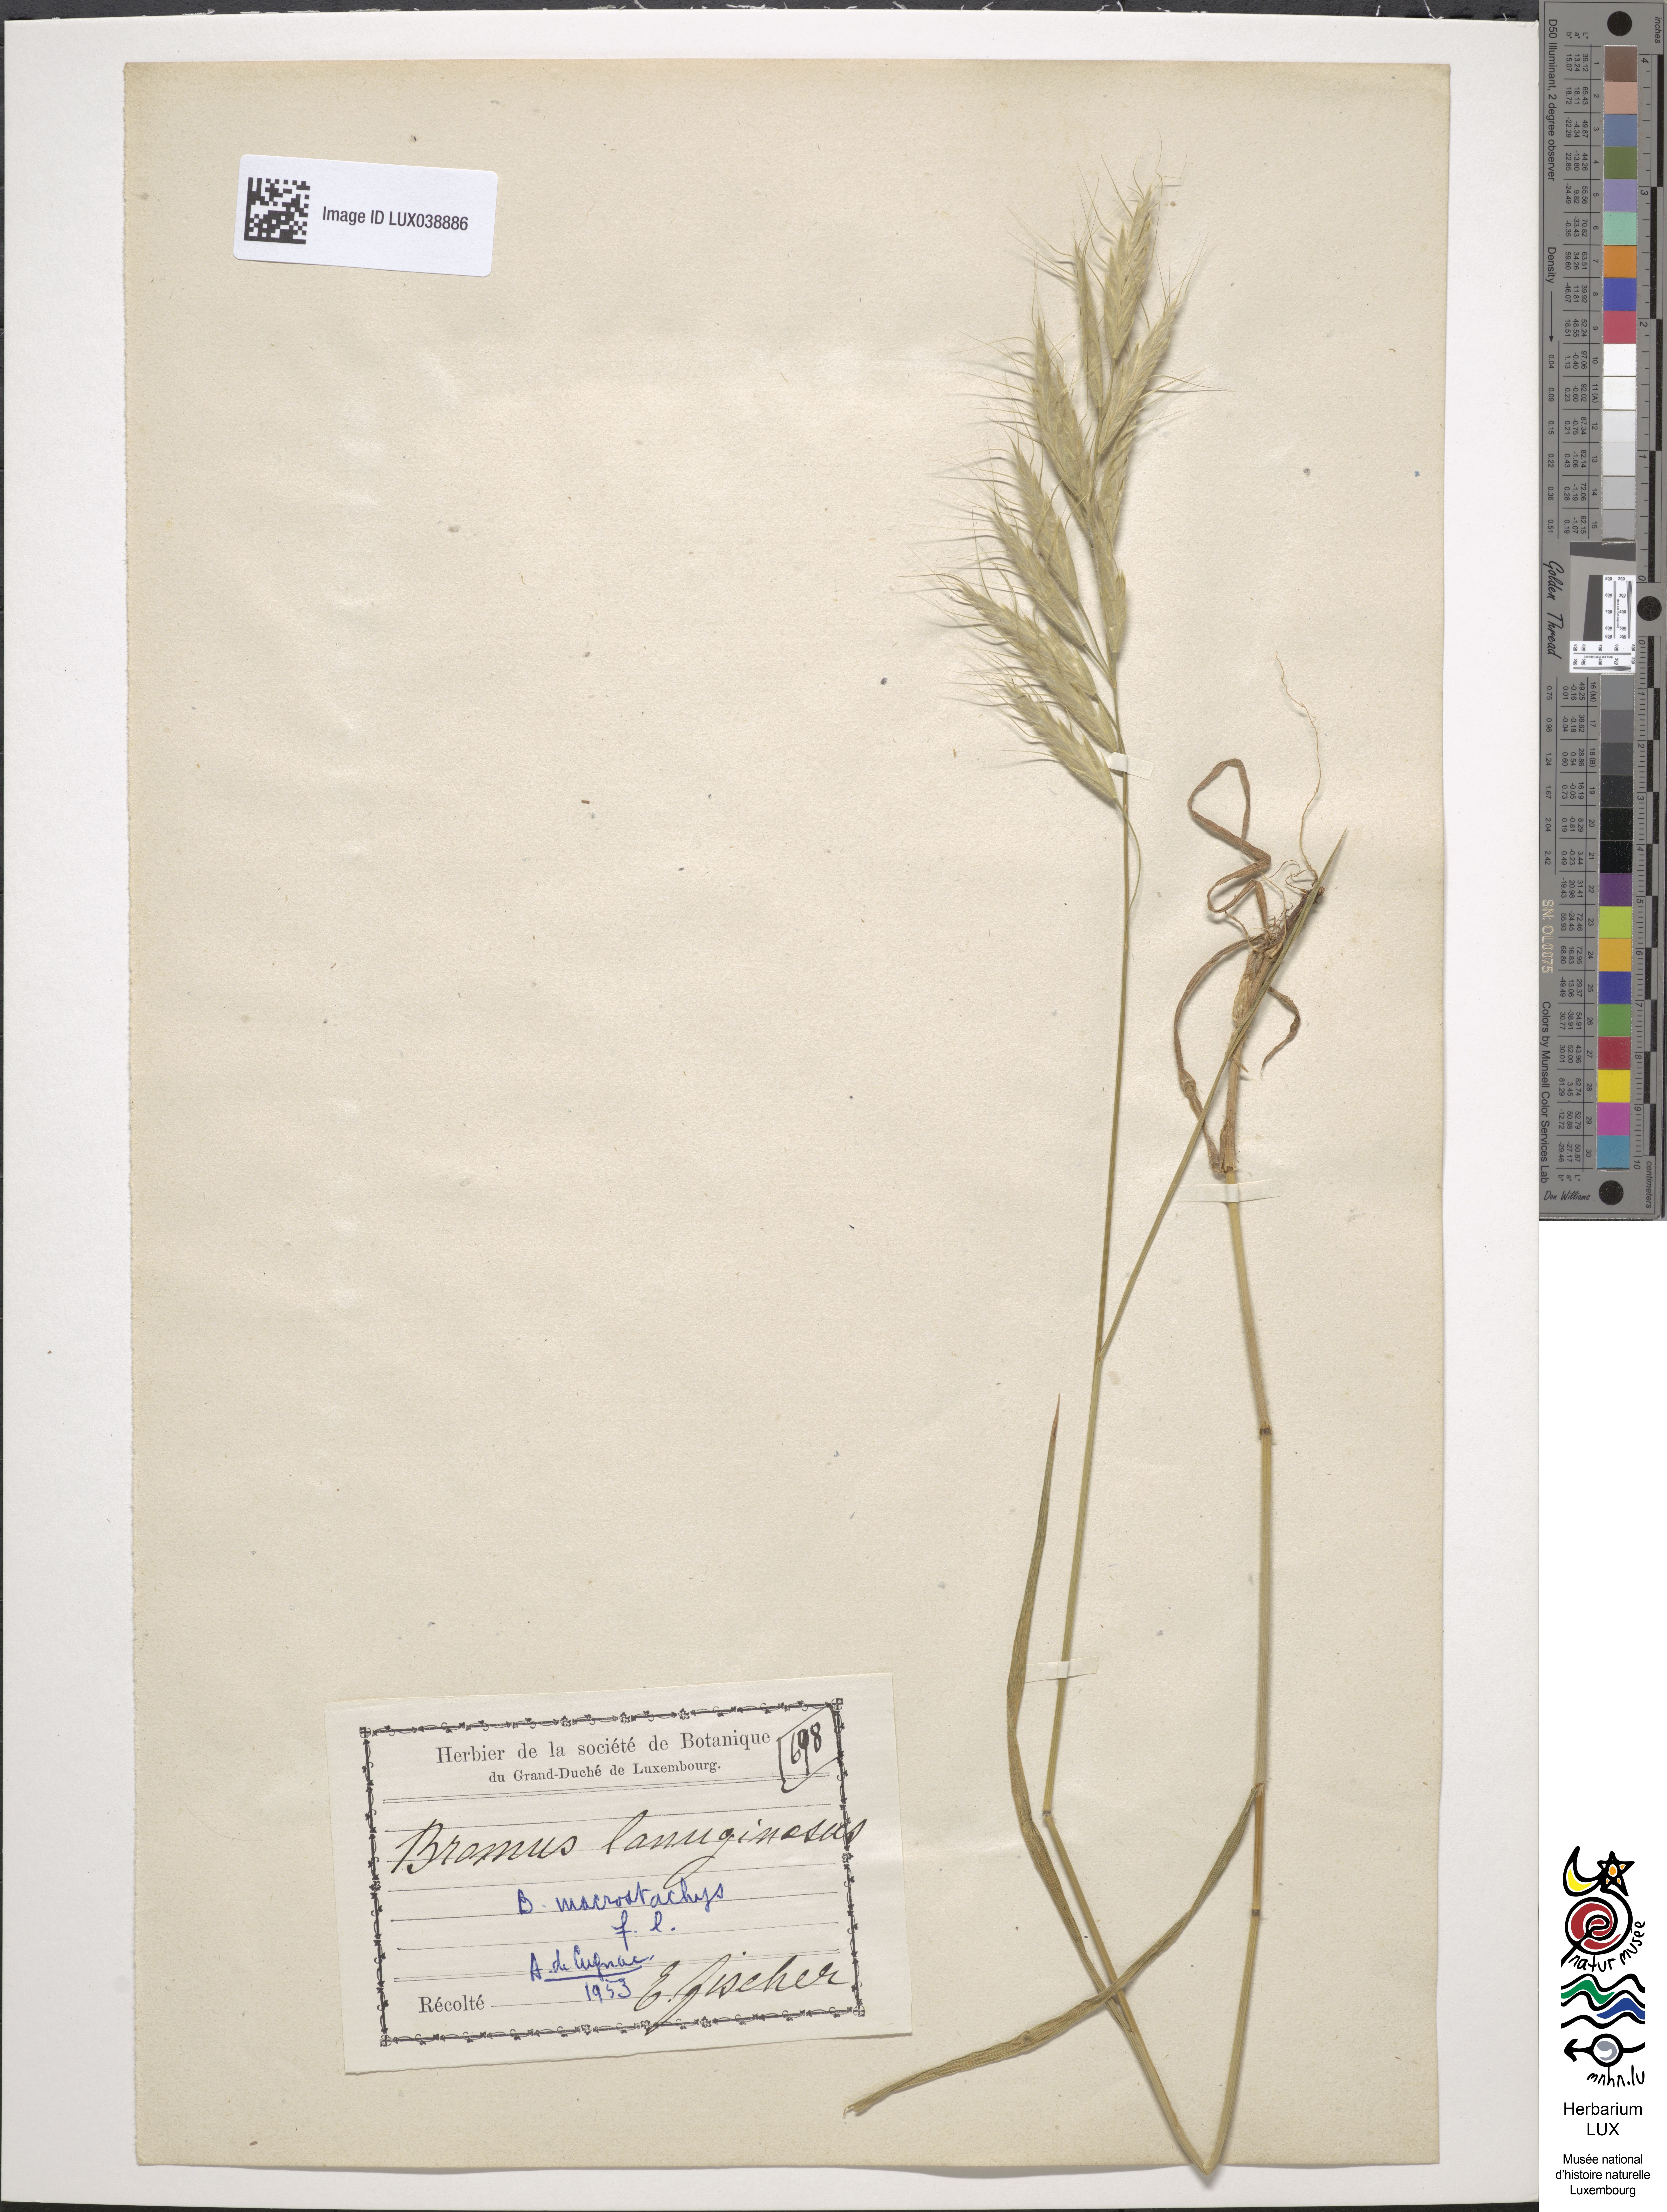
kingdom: Plantae
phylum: Tracheophyta
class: Liliopsida
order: Poales
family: Poaceae
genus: Bromus
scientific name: Bromus lanceolatus
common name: Mediterranean brome
